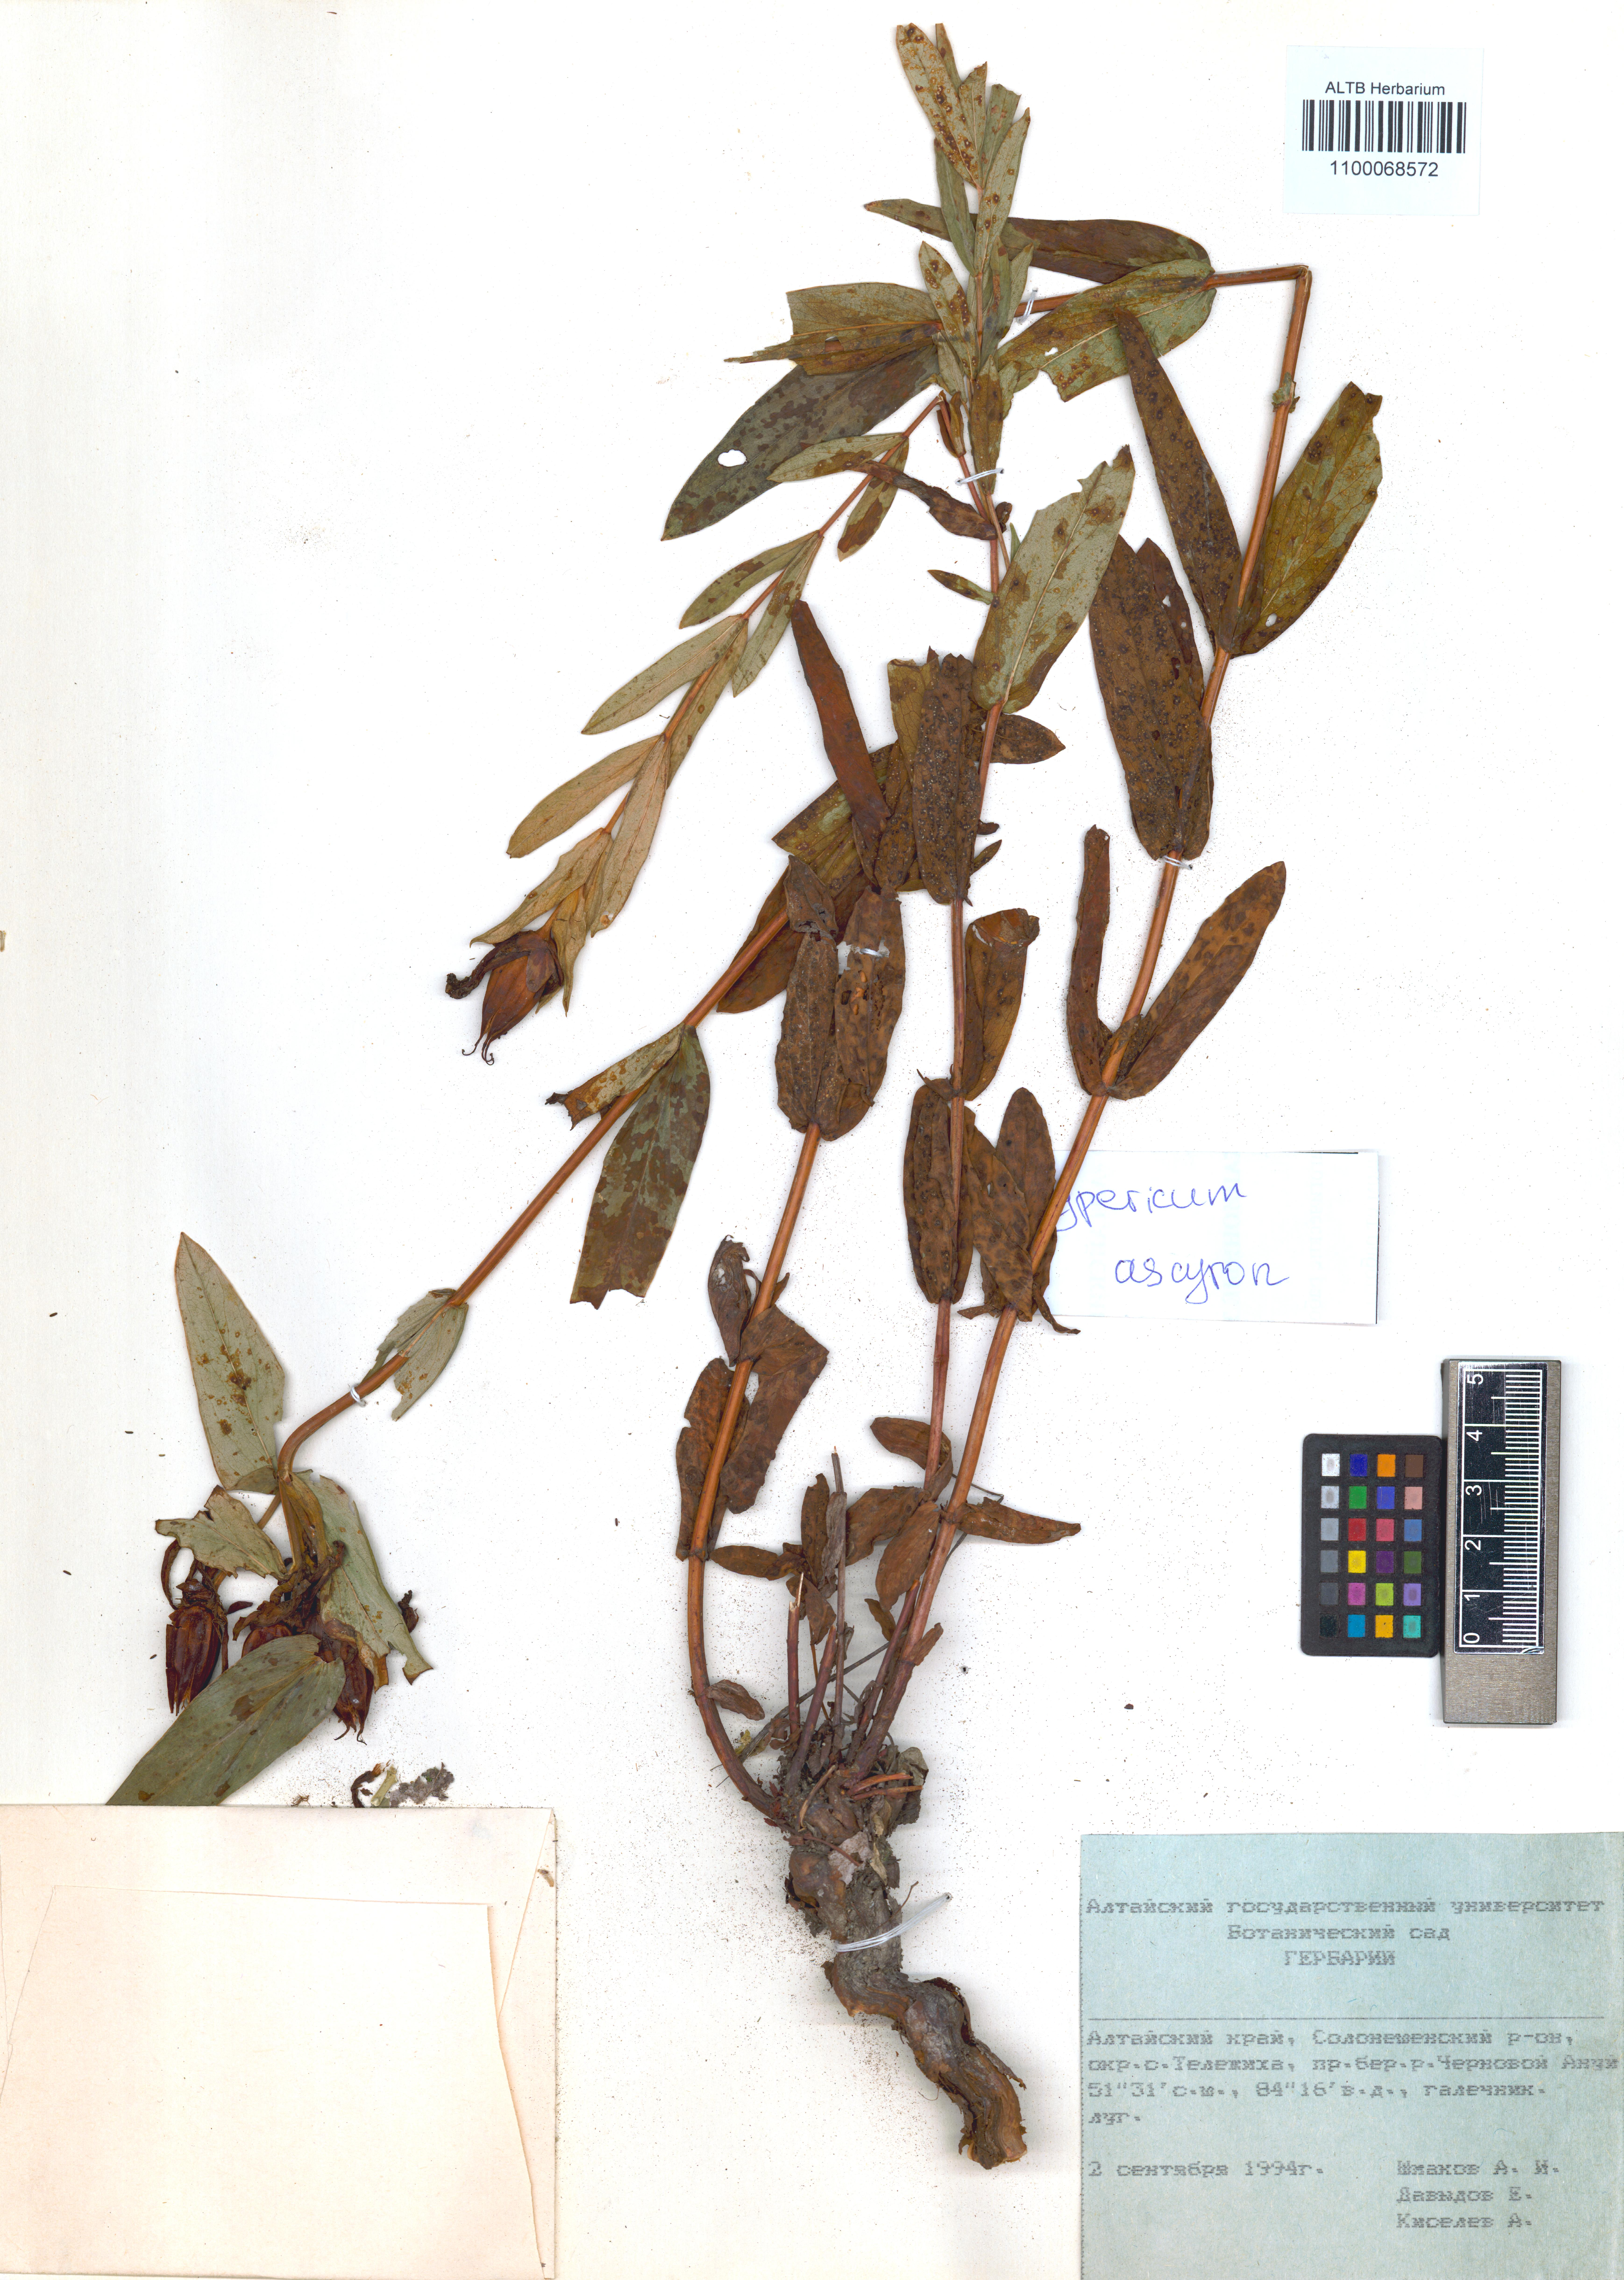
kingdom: Plantae
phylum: Tracheophyta
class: Magnoliopsida
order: Malpighiales
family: Hypericaceae
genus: Hypericum
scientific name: Hypericum ascyron
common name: Giant st. john's-wort
